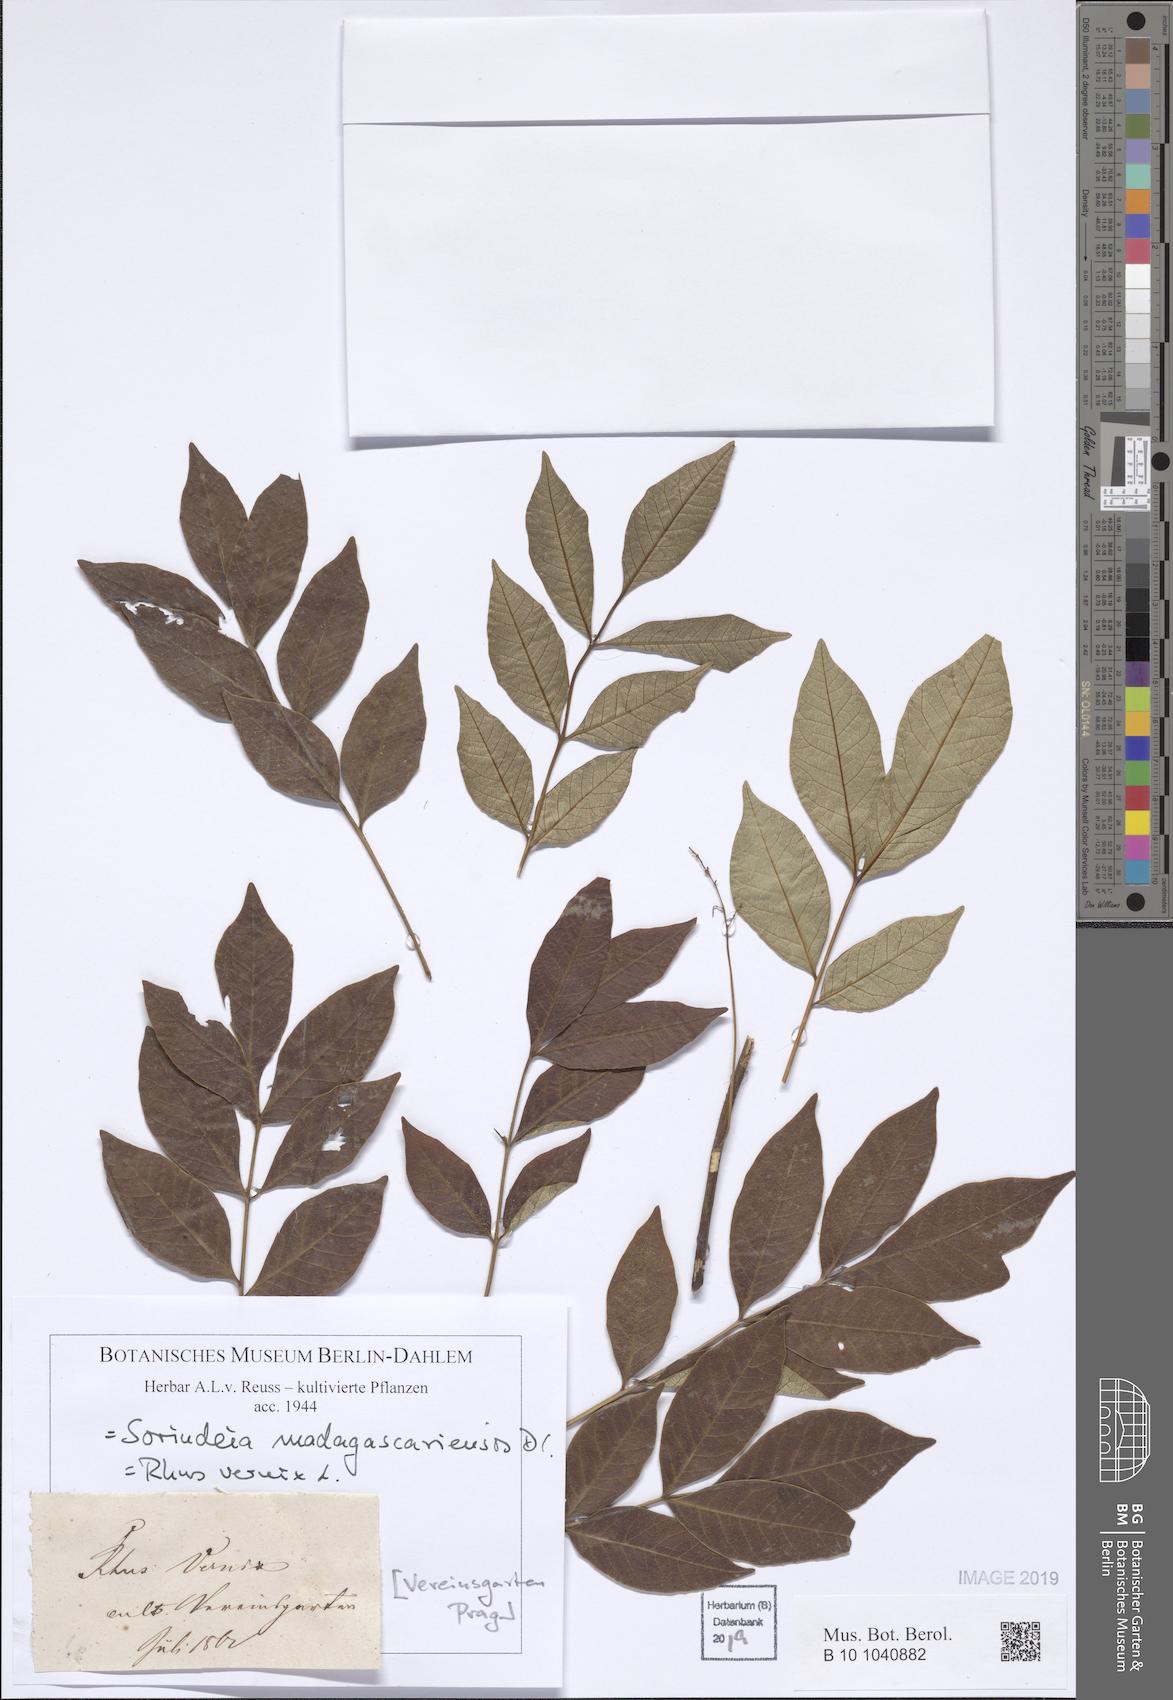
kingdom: Plantae
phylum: Tracheophyta
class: Magnoliopsida
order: Sapindales
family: Anacardiaceae
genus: Sorindeia
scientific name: Sorindeia madagascariensis
